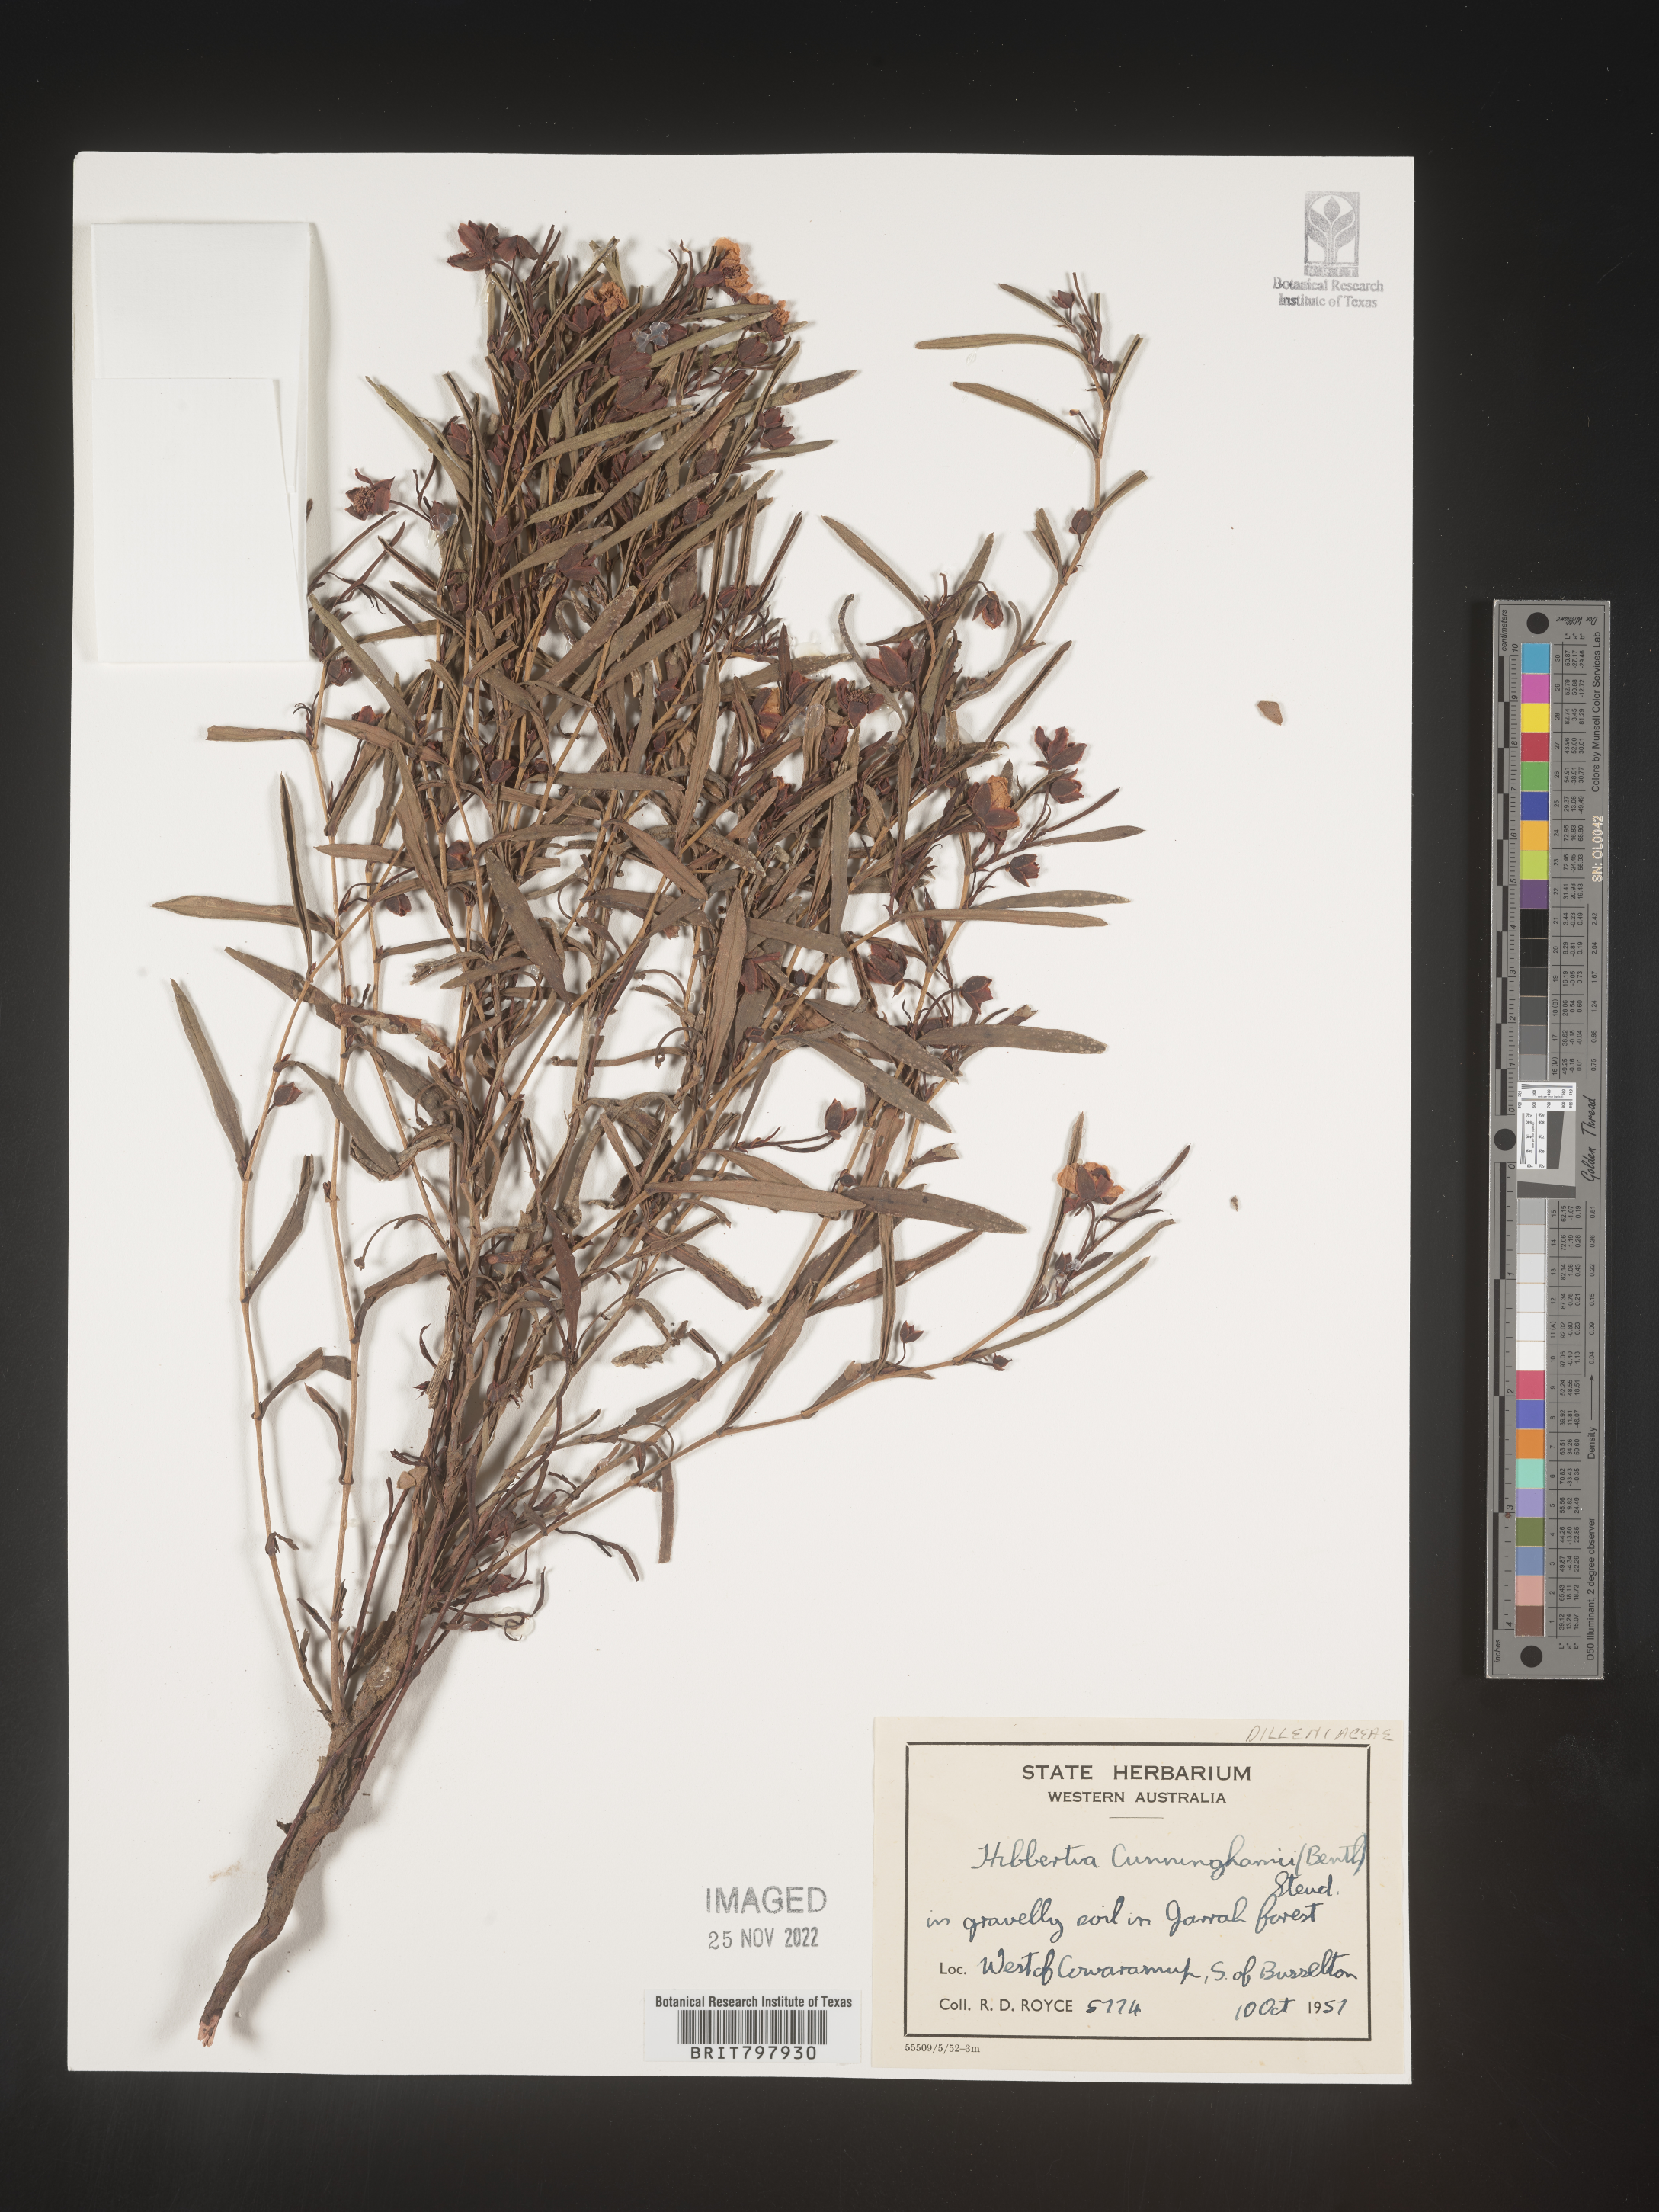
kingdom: Plantae
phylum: Tracheophyta
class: Magnoliopsida
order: Dilleniales
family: Dilleniaceae
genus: Hibbertia
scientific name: Hibbertia
